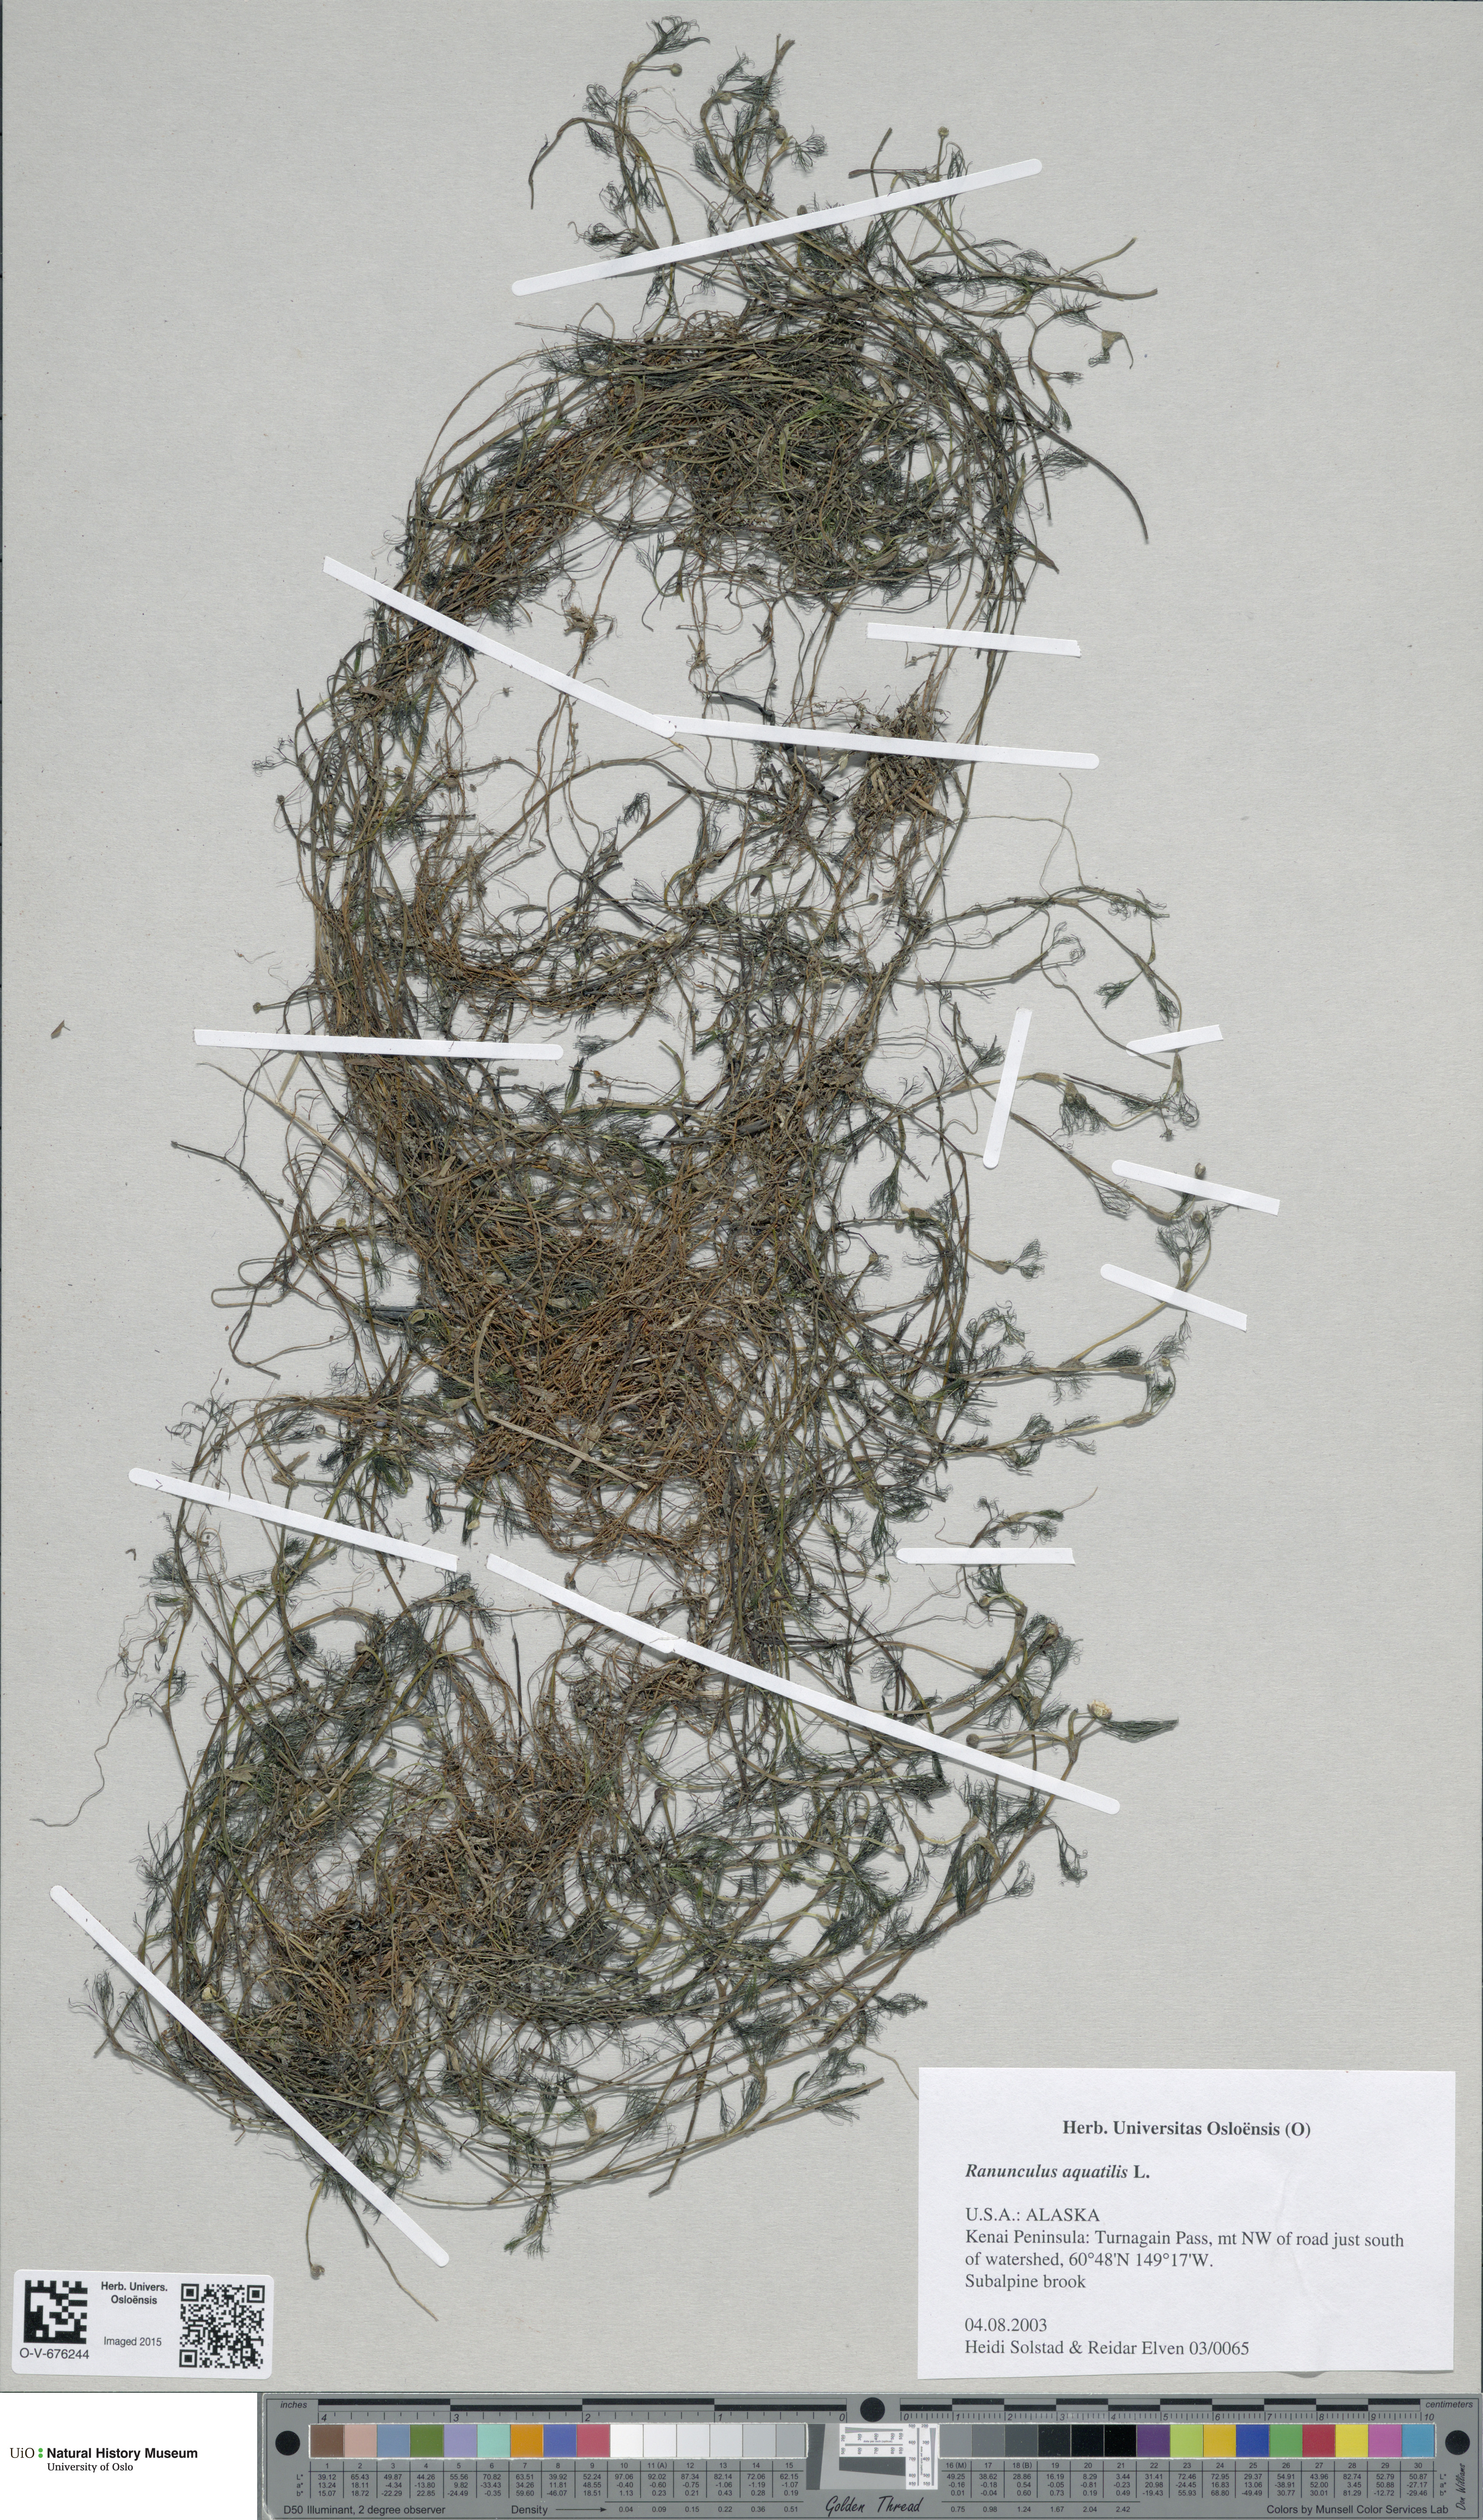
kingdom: Plantae
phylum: Tracheophyta
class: Magnoliopsida
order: Ranunculales
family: Ranunculaceae
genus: Ranunculus
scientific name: Ranunculus aquatilis
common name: Common water-crowfoot
